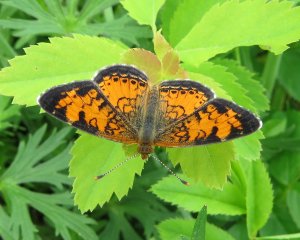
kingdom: Animalia
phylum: Arthropoda
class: Insecta
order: Lepidoptera
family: Nymphalidae
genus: Phyciodes
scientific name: Phyciodes tharos
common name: Northern Crescent
